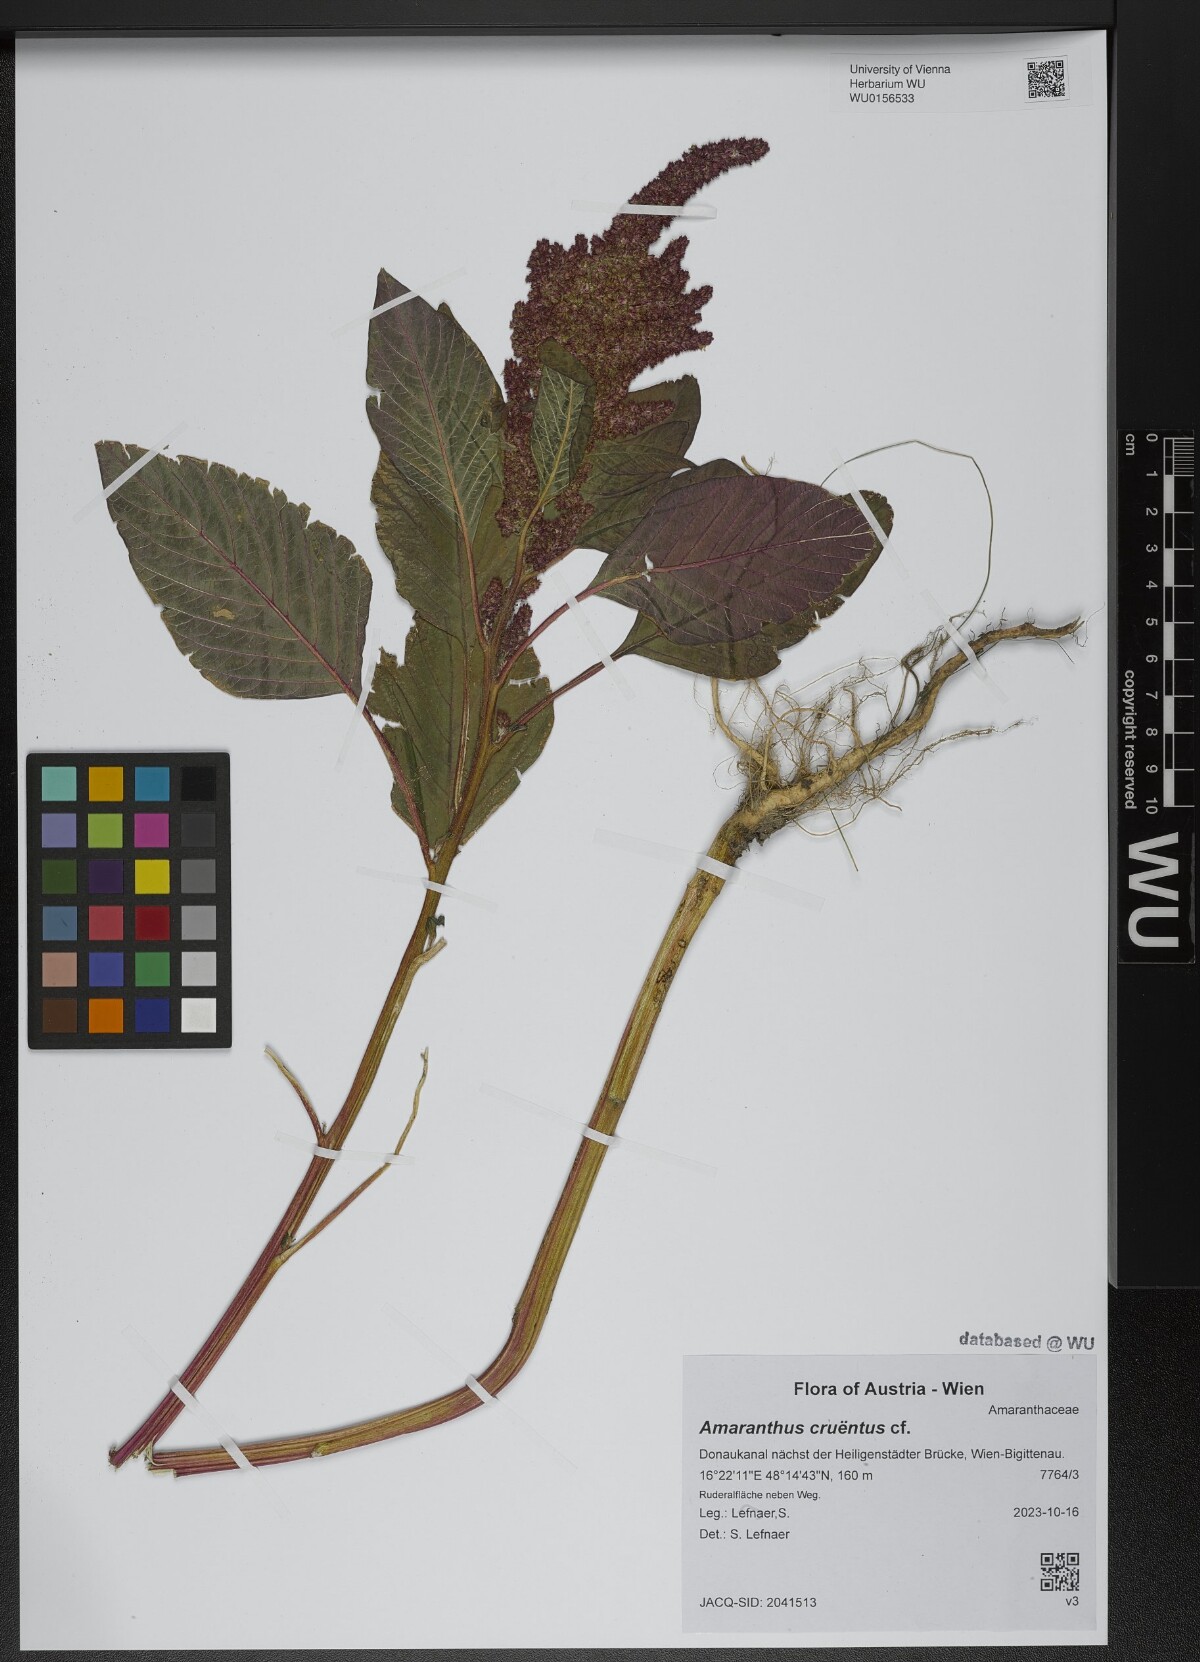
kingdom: Plantae
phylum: Tracheophyta
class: Magnoliopsida
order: Caryophyllales
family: Amaranthaceae
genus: Amaranthus
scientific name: Amaranthus cruentus
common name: Purple amaranth
